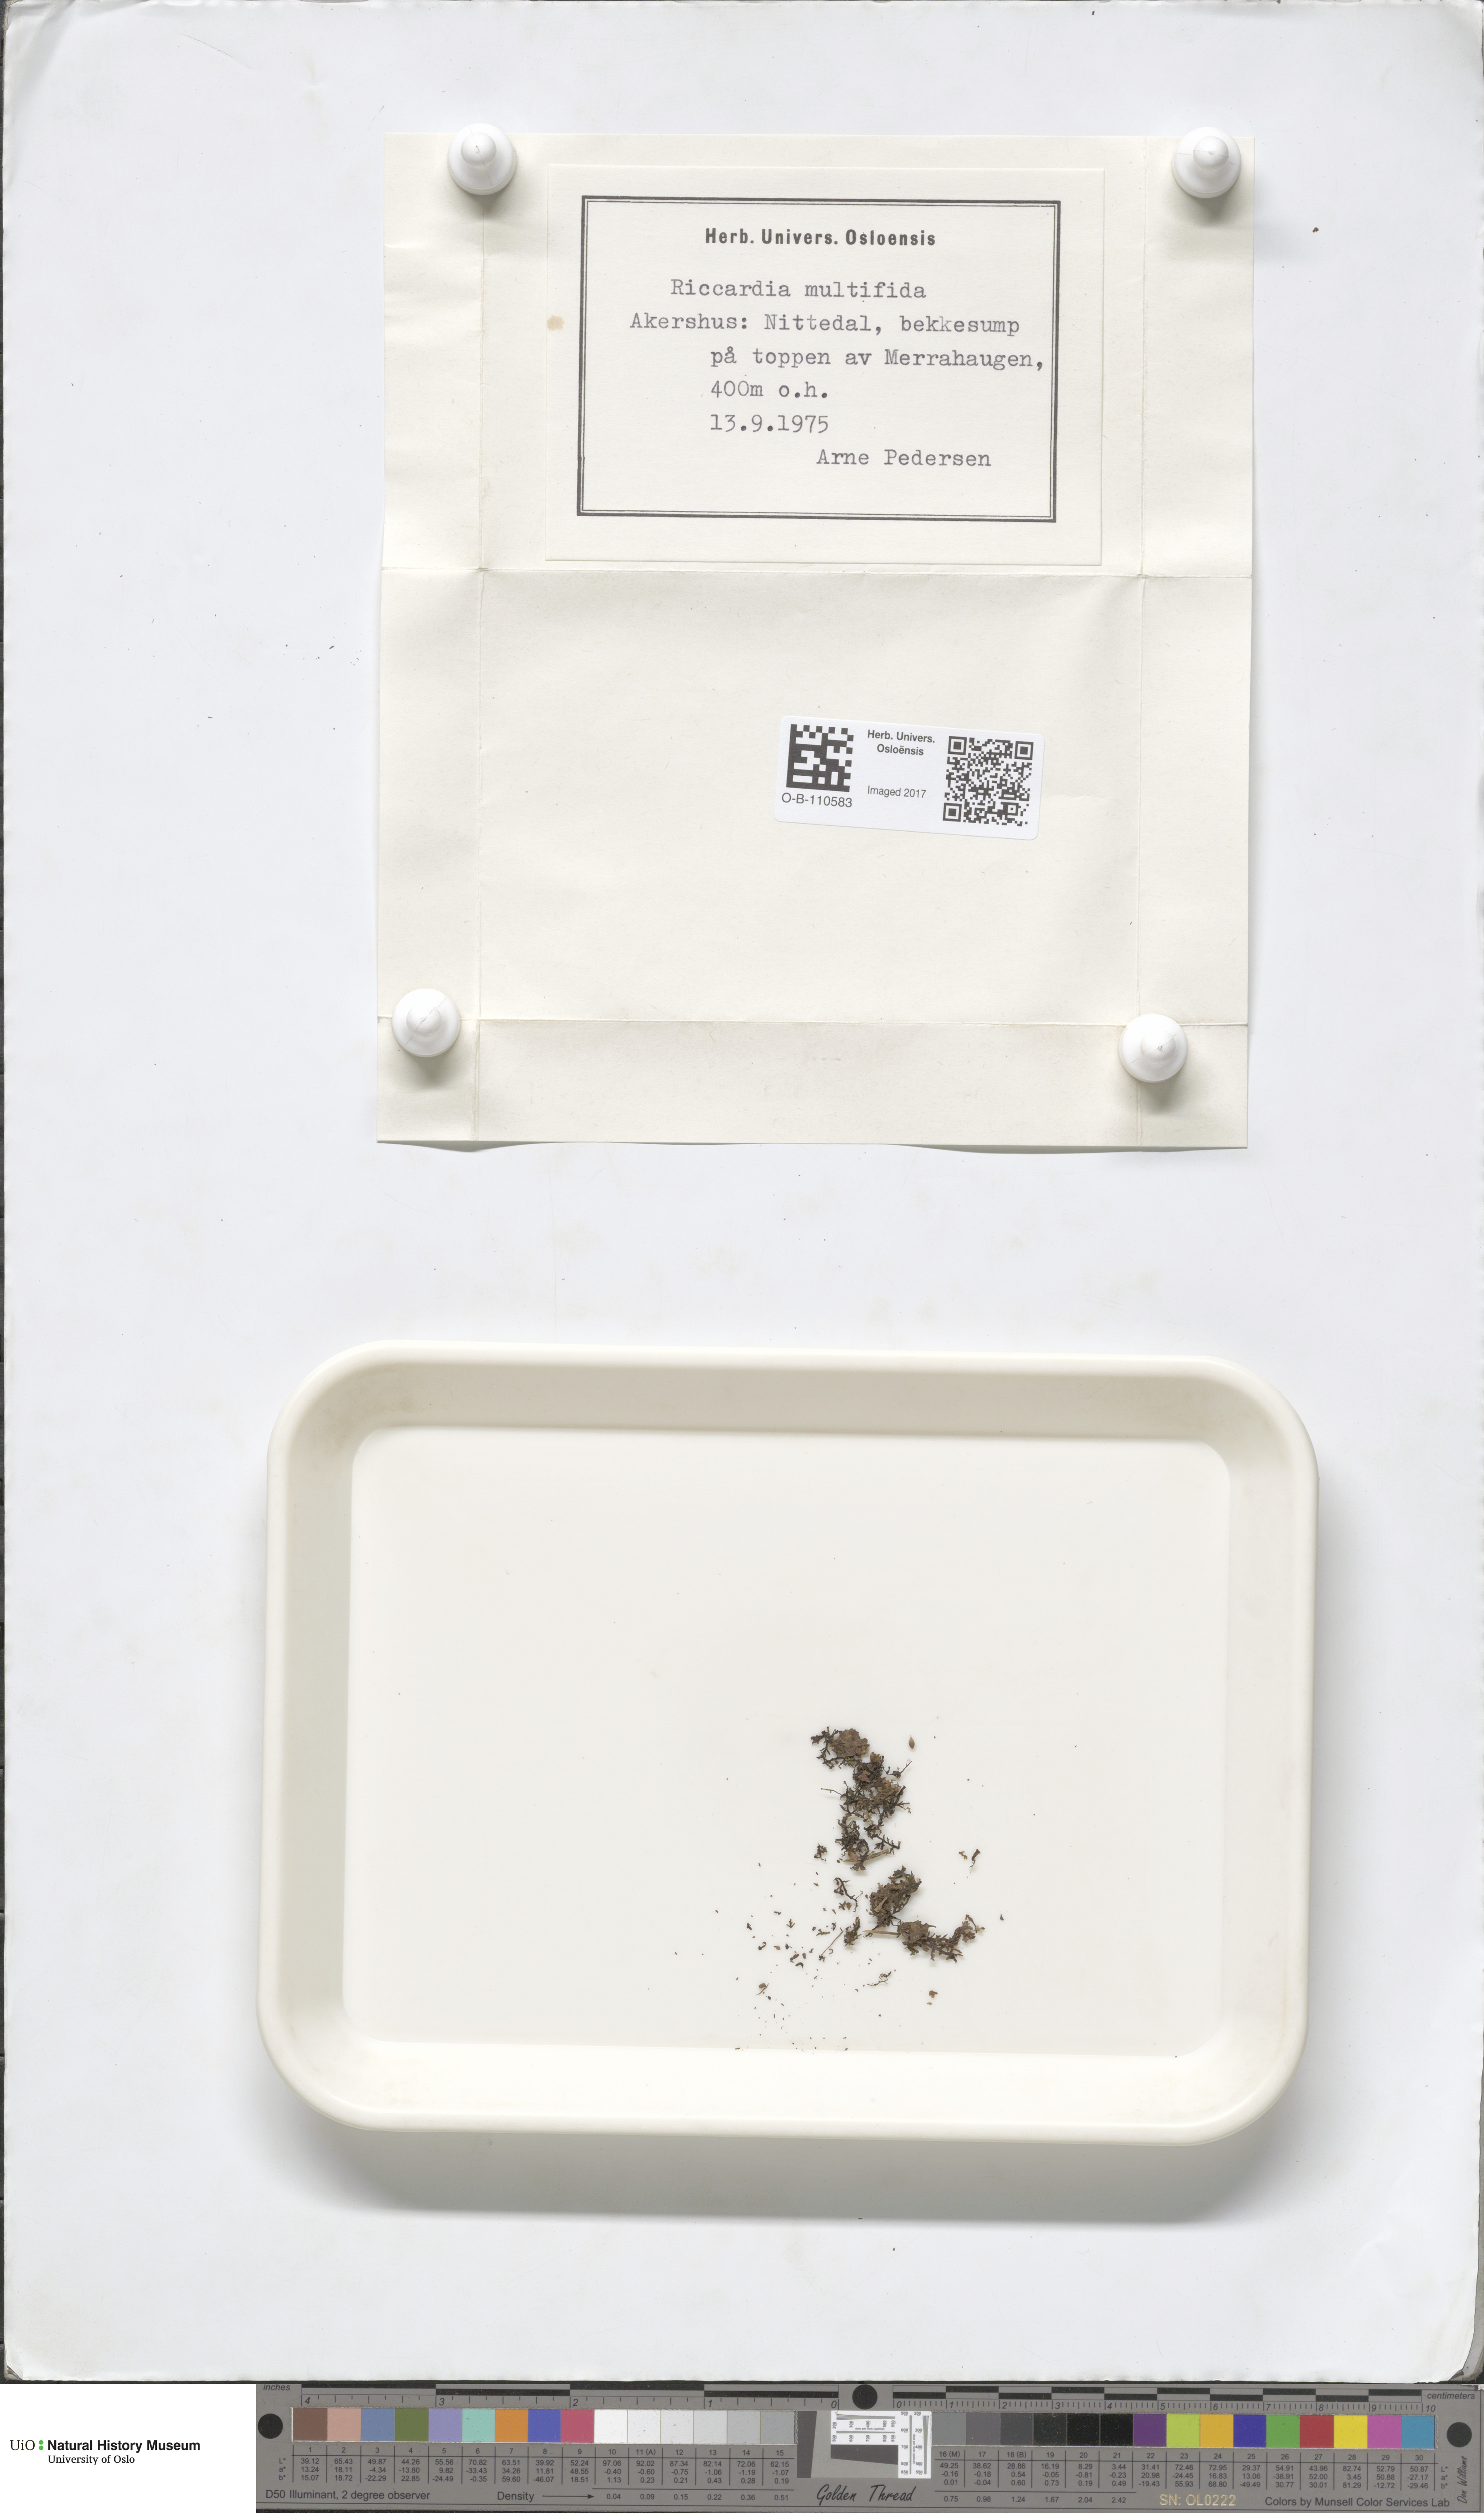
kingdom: Plantae
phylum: Marchantiophyta
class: Jungermanniopsida
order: Metzgeriales
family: Aneuraceae
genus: Riccardia
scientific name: Riccardia multifida
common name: Delicate germanderwort
